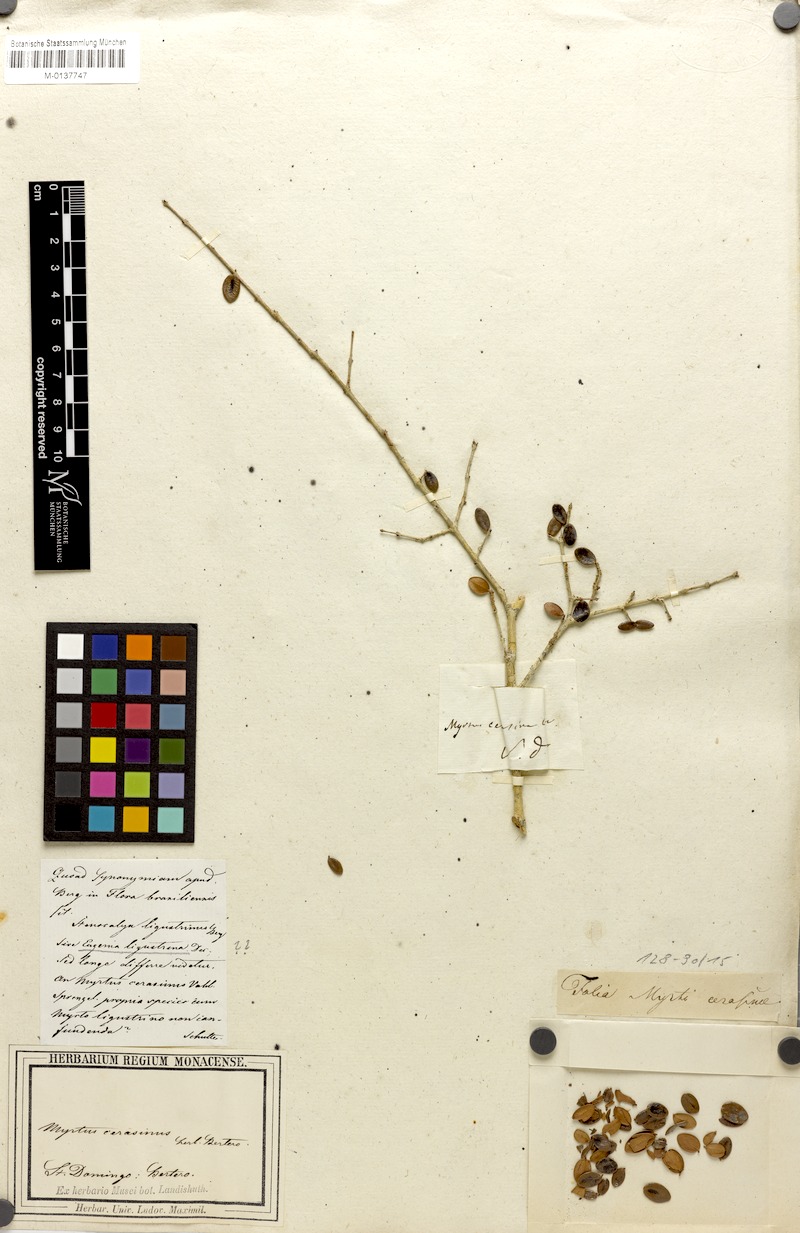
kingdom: Plantae
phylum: Tracheophyta
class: Magnoliopsida
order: Myrtales
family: Myrtaceae
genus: Eugenia
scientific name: Eugenia ligustrina
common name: Privet stopper
